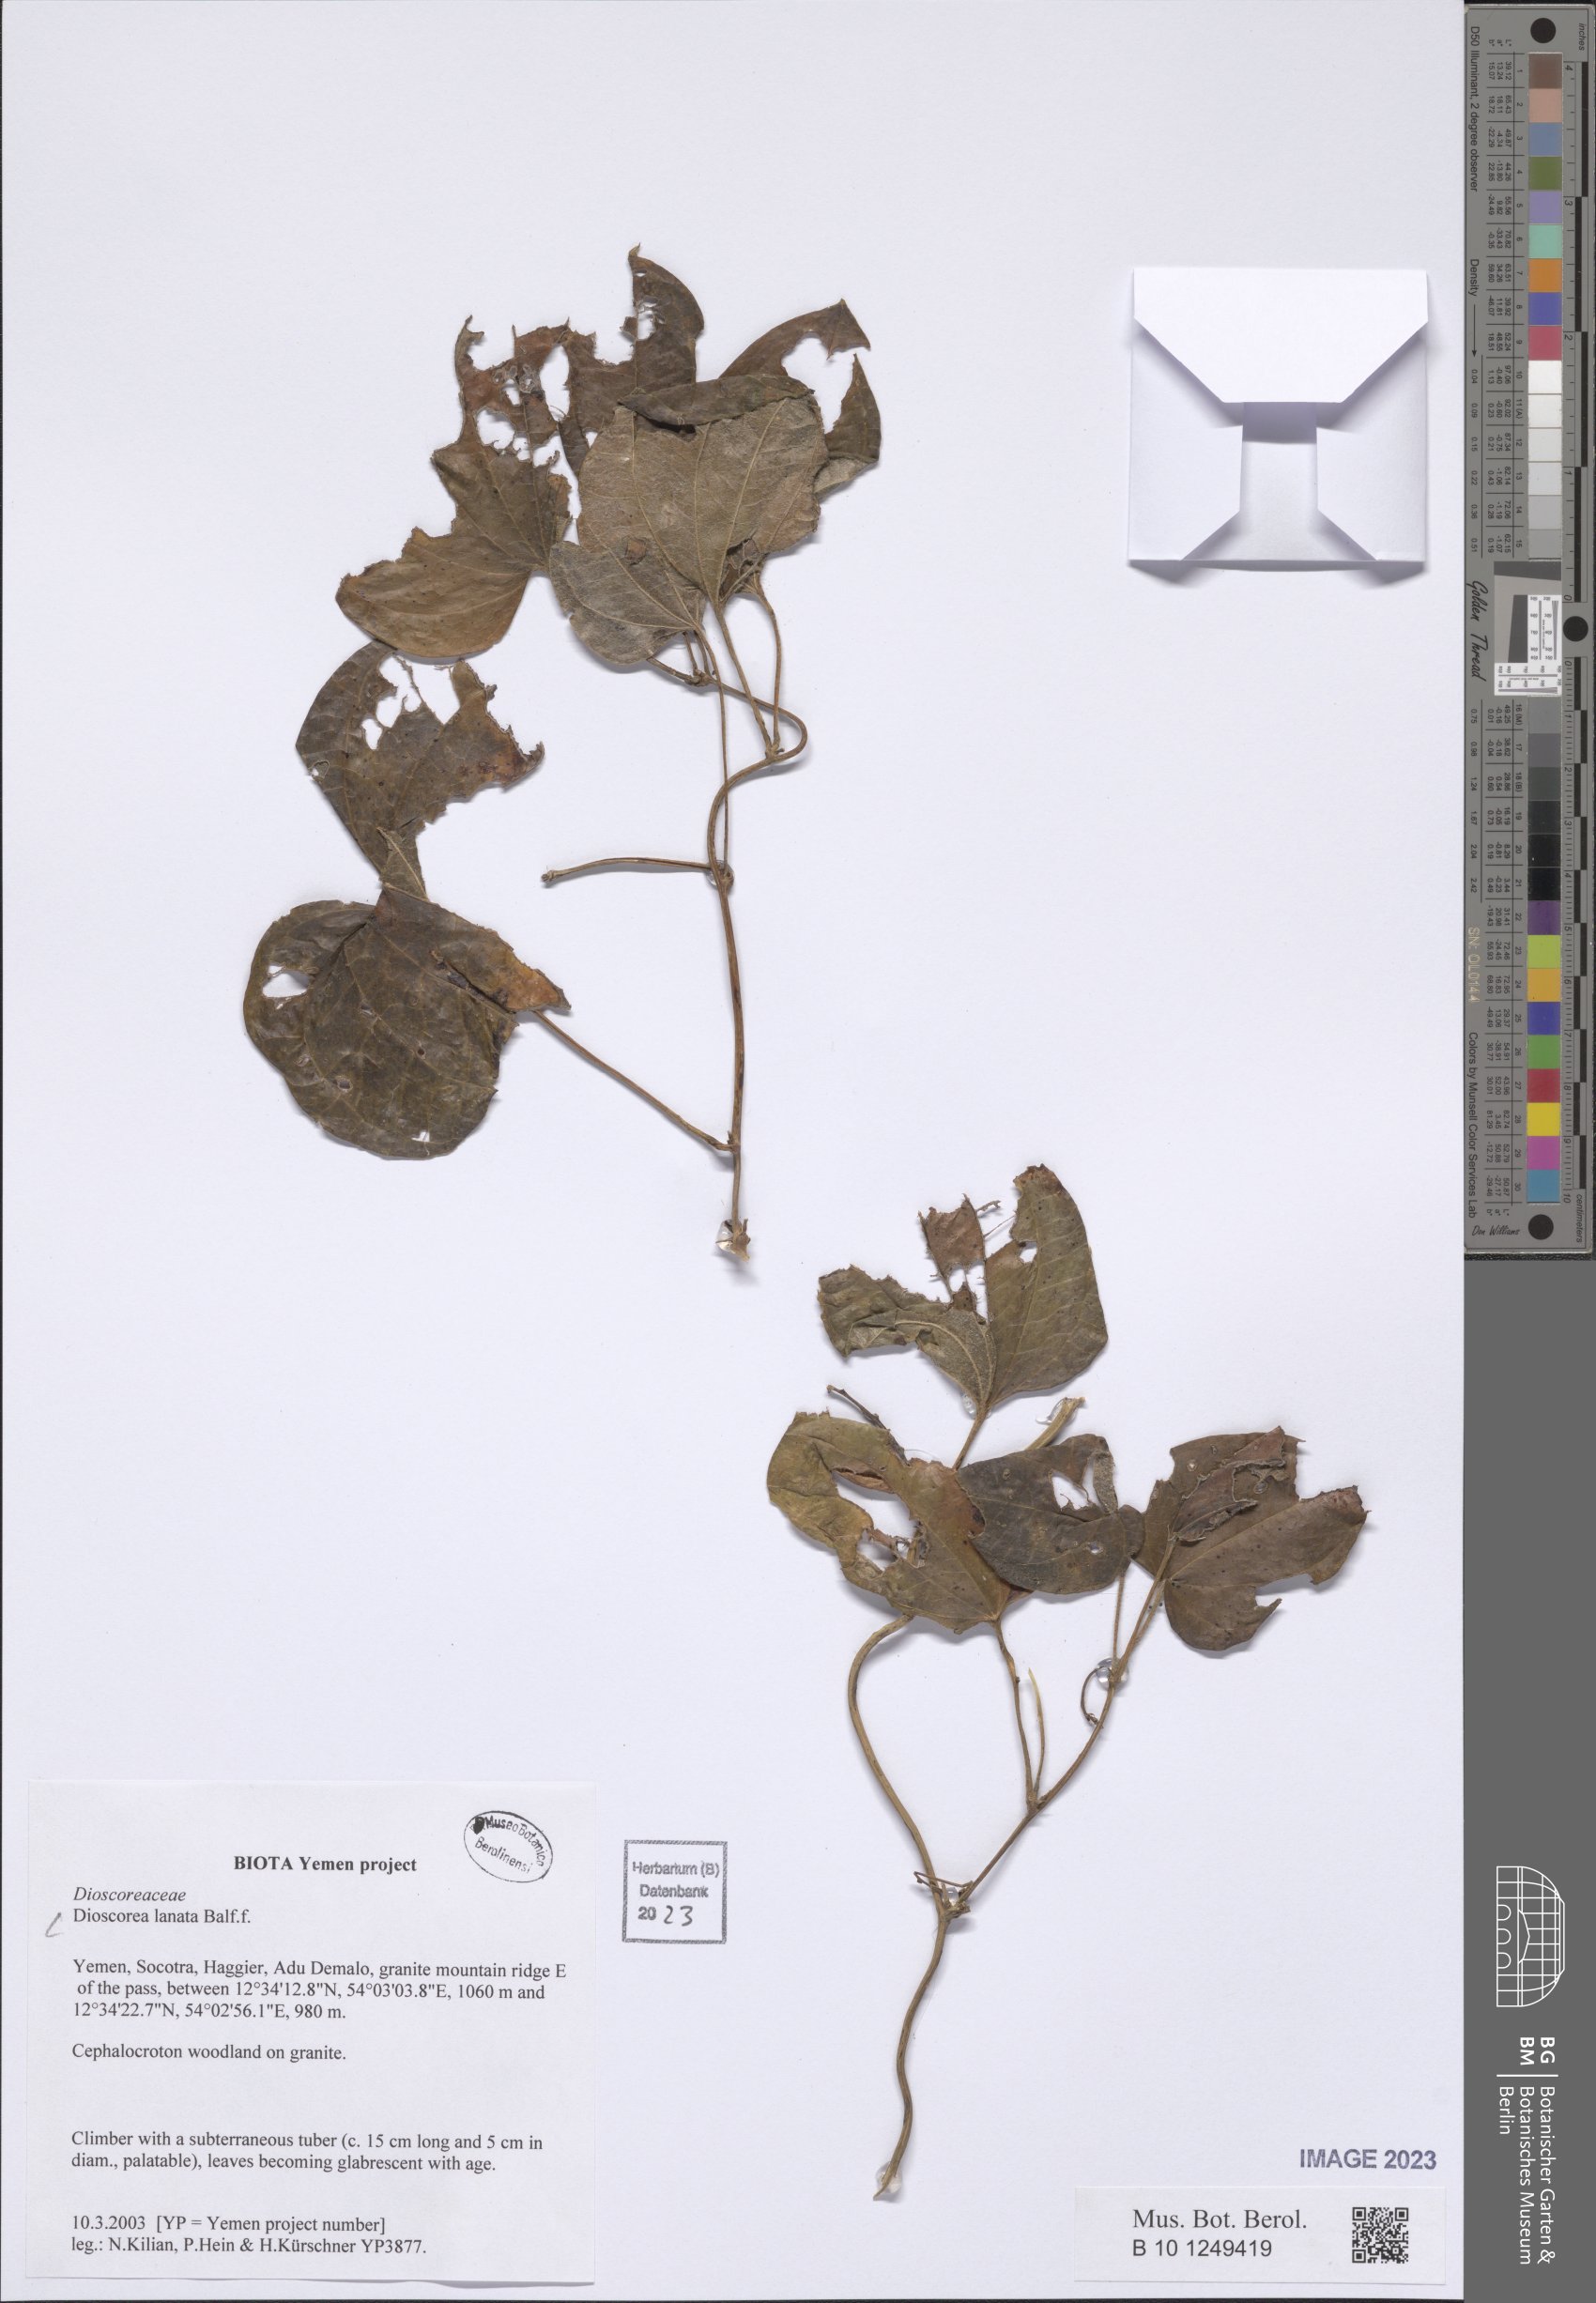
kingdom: Plantae
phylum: Tracheophyta
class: Liliopsida
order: Dioscoreales
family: Dioscoreaceae
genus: Dioscorea
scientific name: Dioscorea lanata
